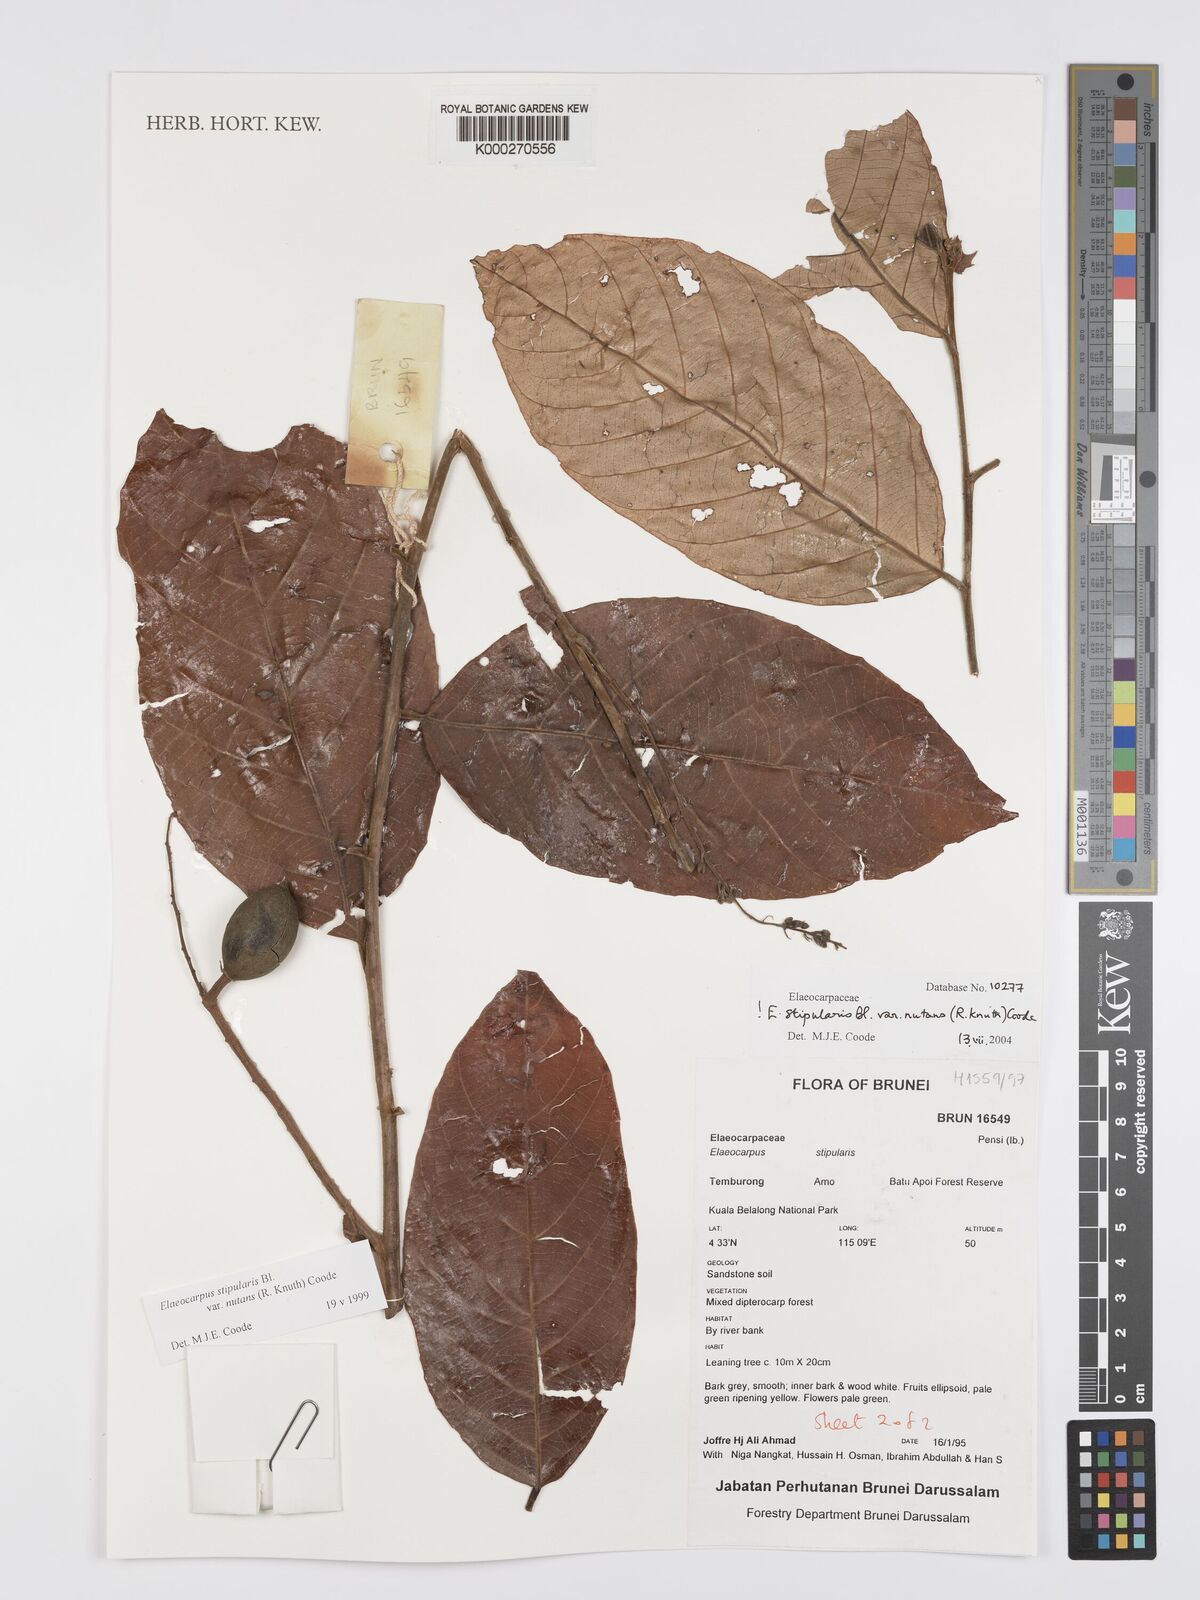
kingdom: Plantae
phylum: Tracheophyta
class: Magnoliopsida
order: Oxalidales
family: Elaeocarpaceae
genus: Elaeocarpus
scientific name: Elaeocarpus stipularis
